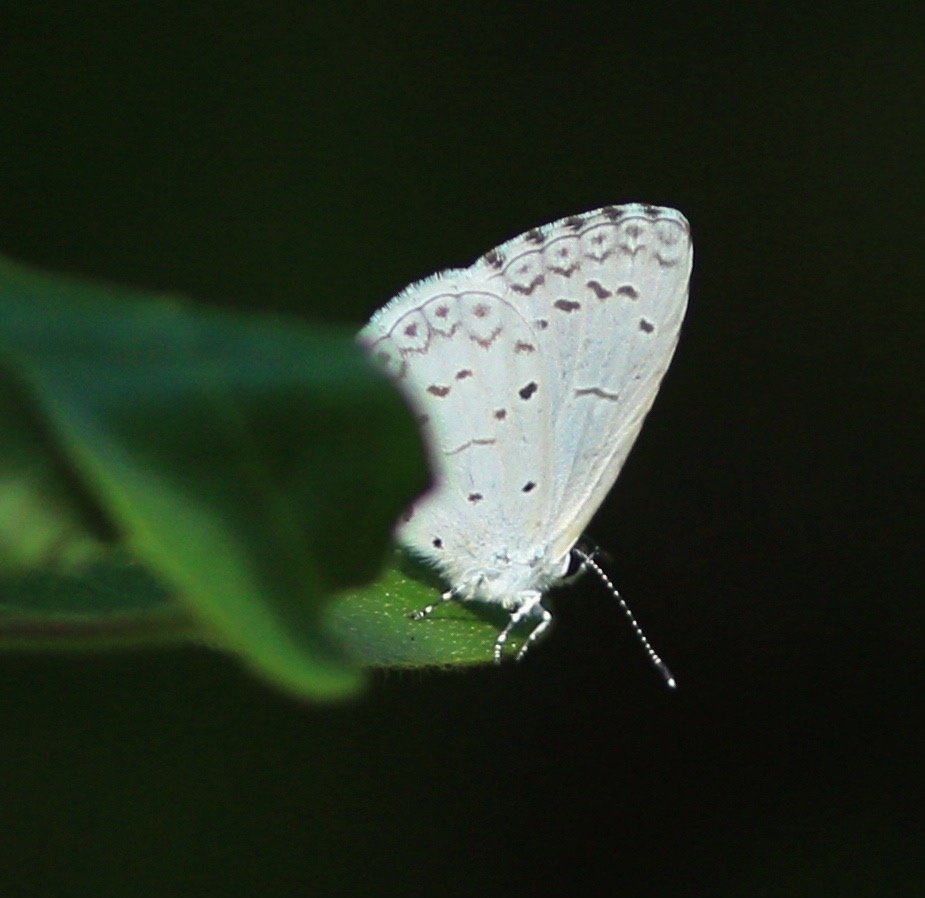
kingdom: Animalia
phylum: Arthropoda
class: Insecta
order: Lepidoptera
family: Lycaenidae
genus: Cyaniris
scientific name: Cyaniris neglecta
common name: Summer Azure
